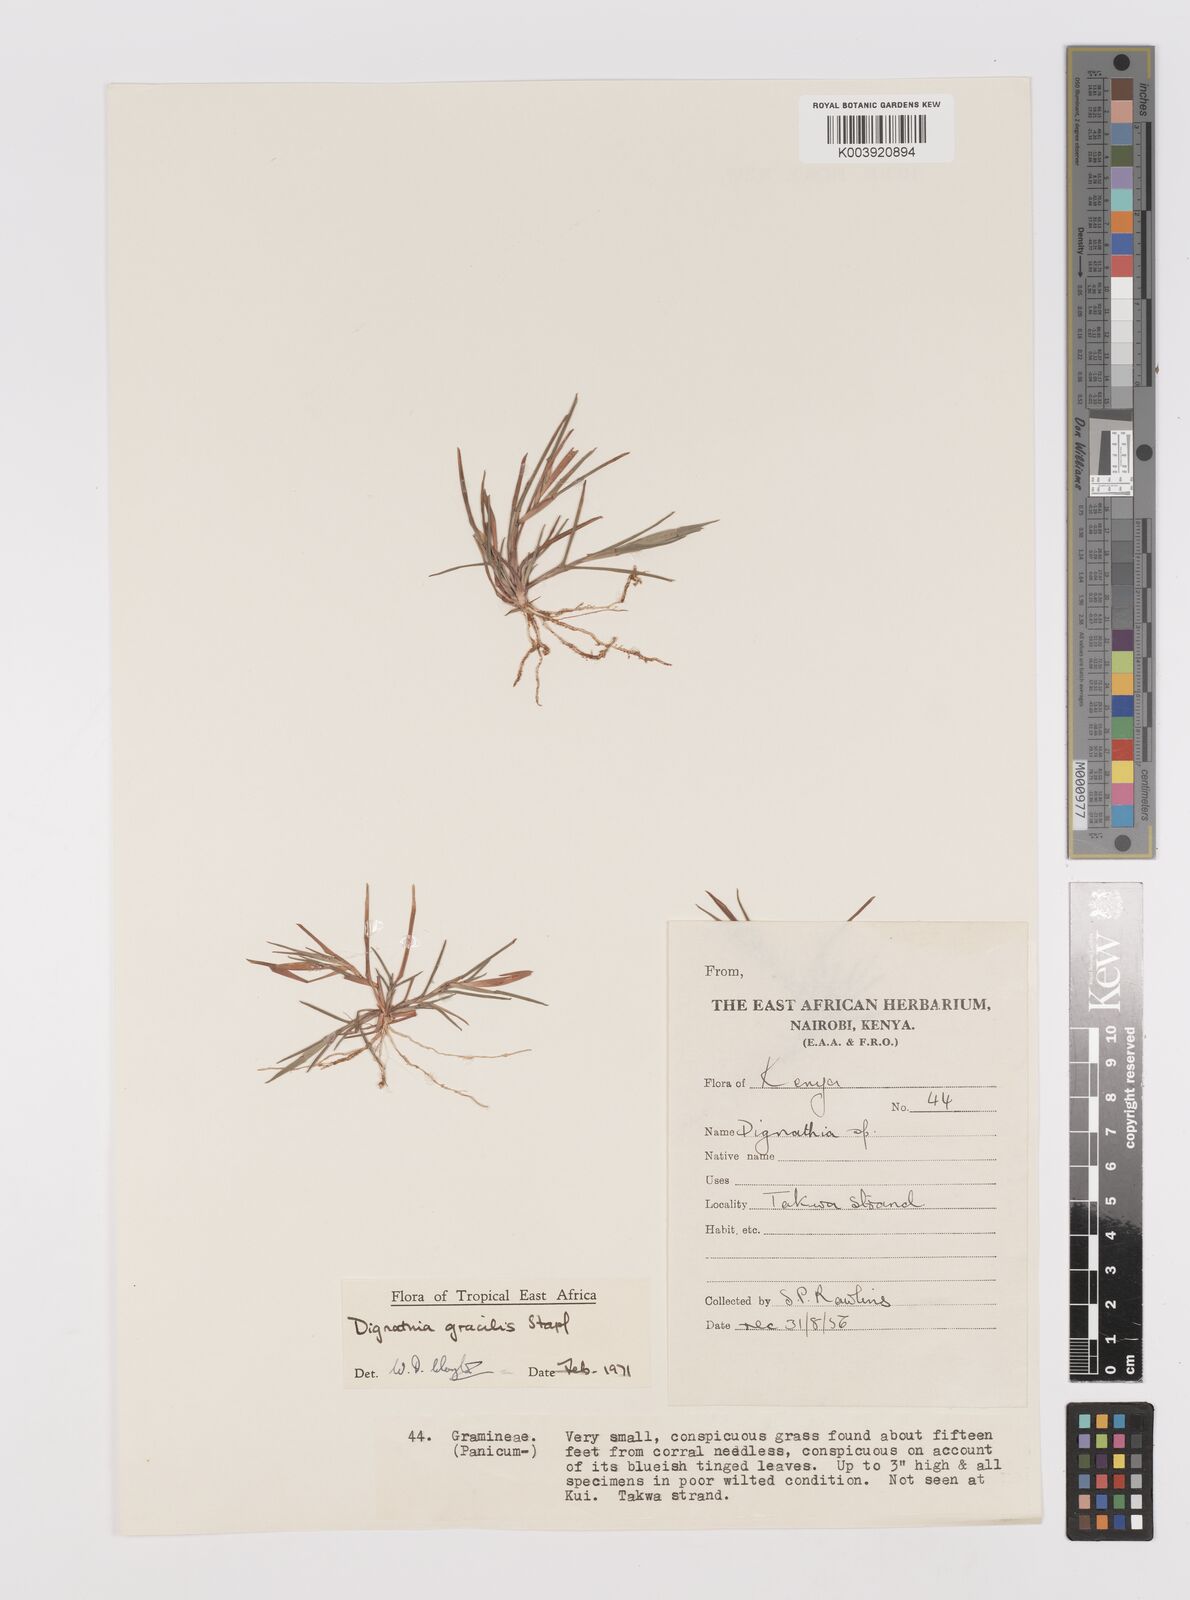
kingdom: Plantae
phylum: Tracheophyta
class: Liliopsida
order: Poales
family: Poaceae
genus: Dignathia
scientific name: Dignathia gracilis
